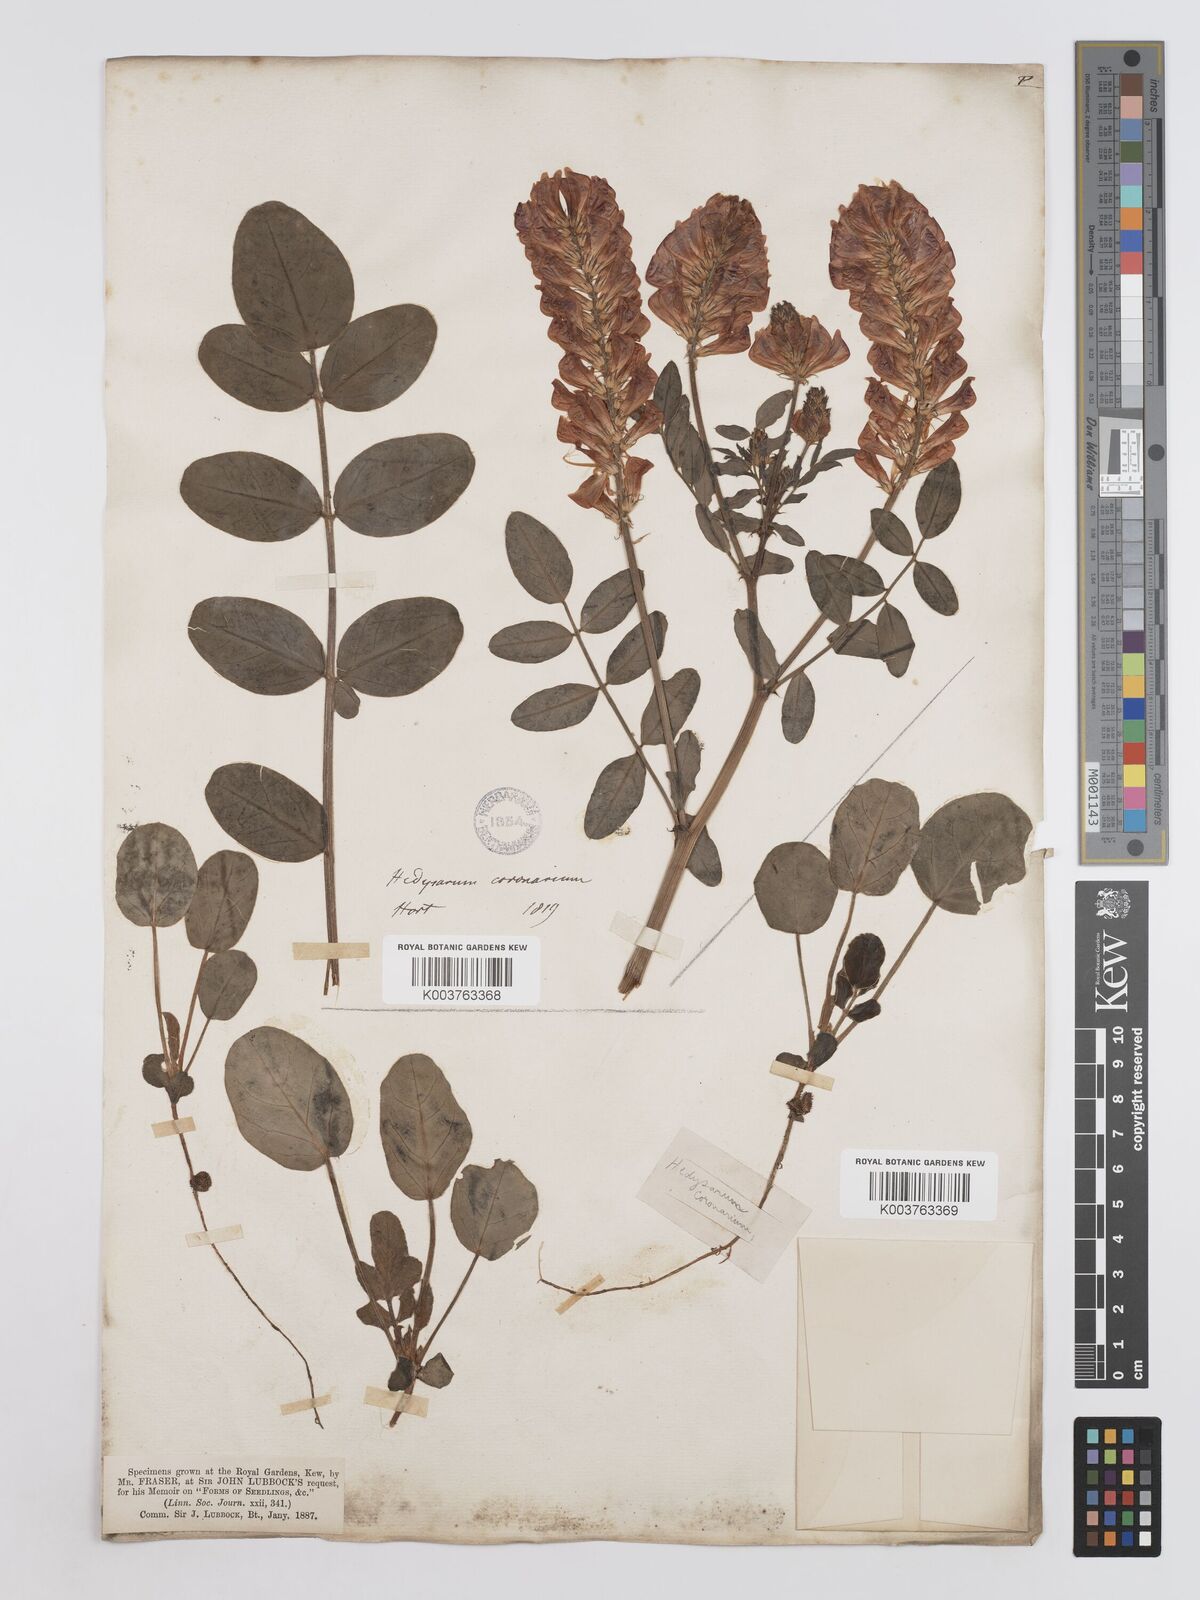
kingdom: Plantae
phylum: Tracheophyta
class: Magnoliopsida
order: Fabales
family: Fabaceae
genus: Sulla
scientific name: Sulla coronaria
